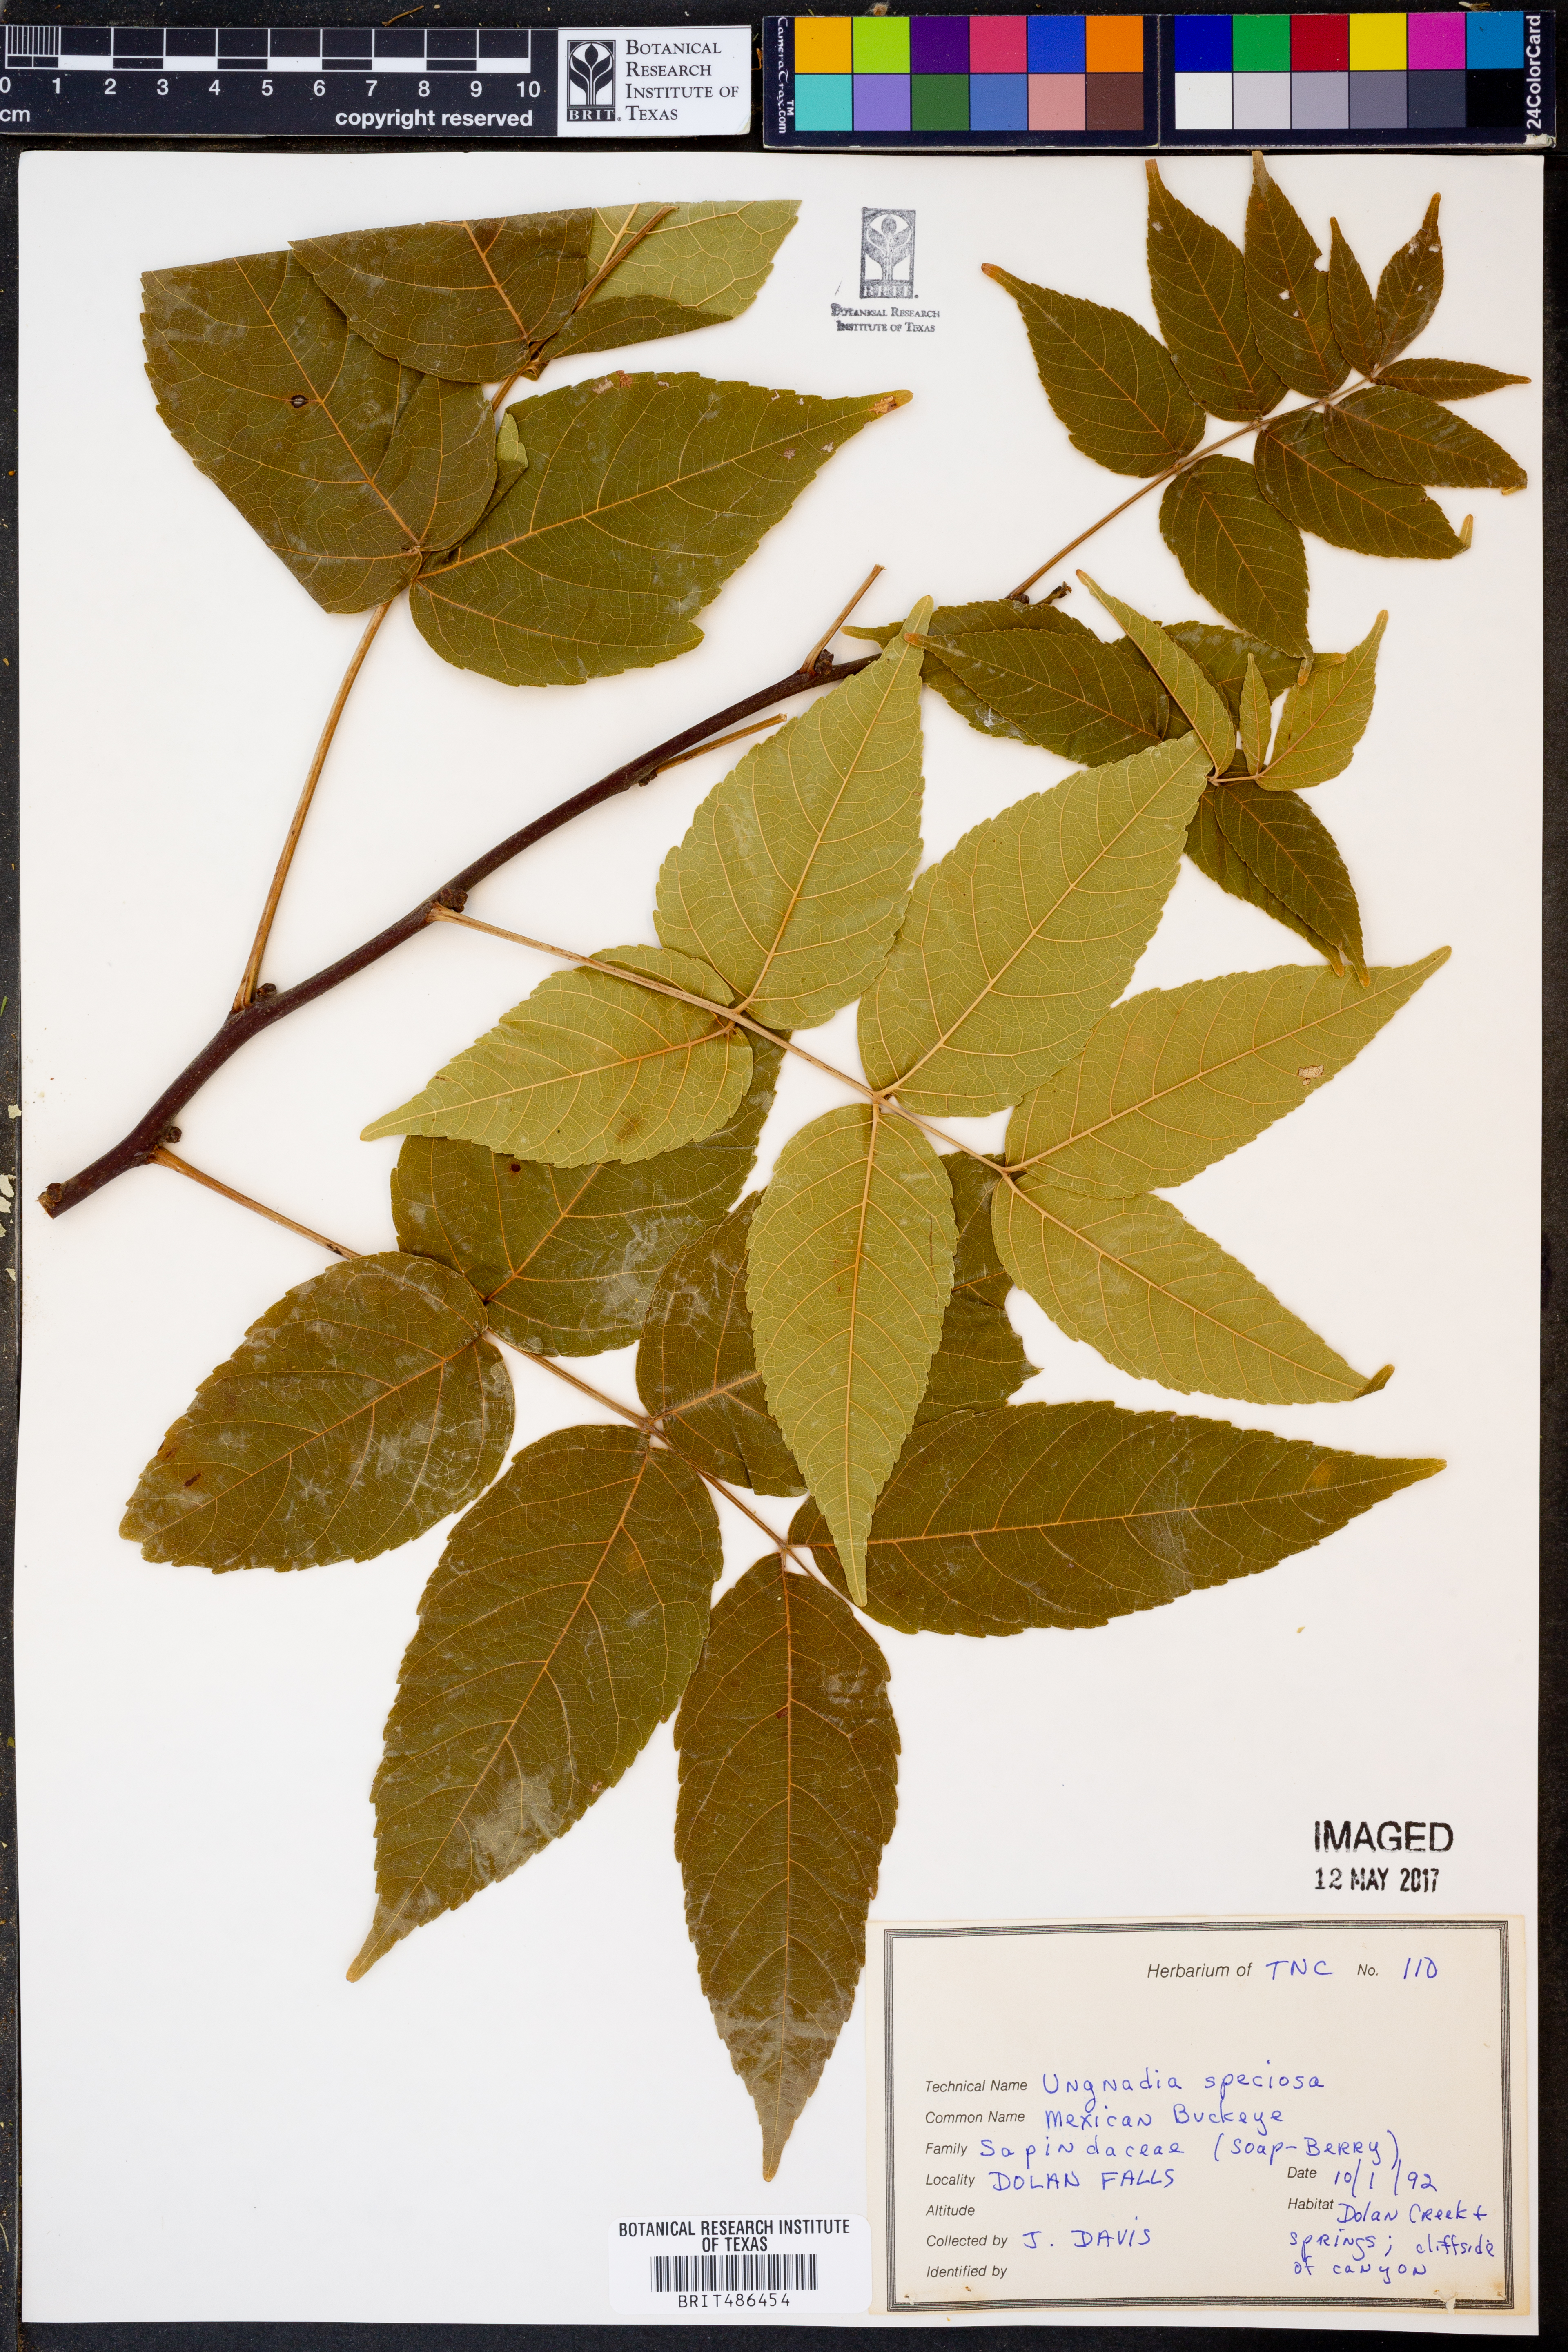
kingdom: Plantae
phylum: Tracheophyta
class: Magnoliopsida
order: Sapindales
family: Sapindaceae
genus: Ungnadia
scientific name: Ungnadia speciosa
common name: Texas-buckeye
